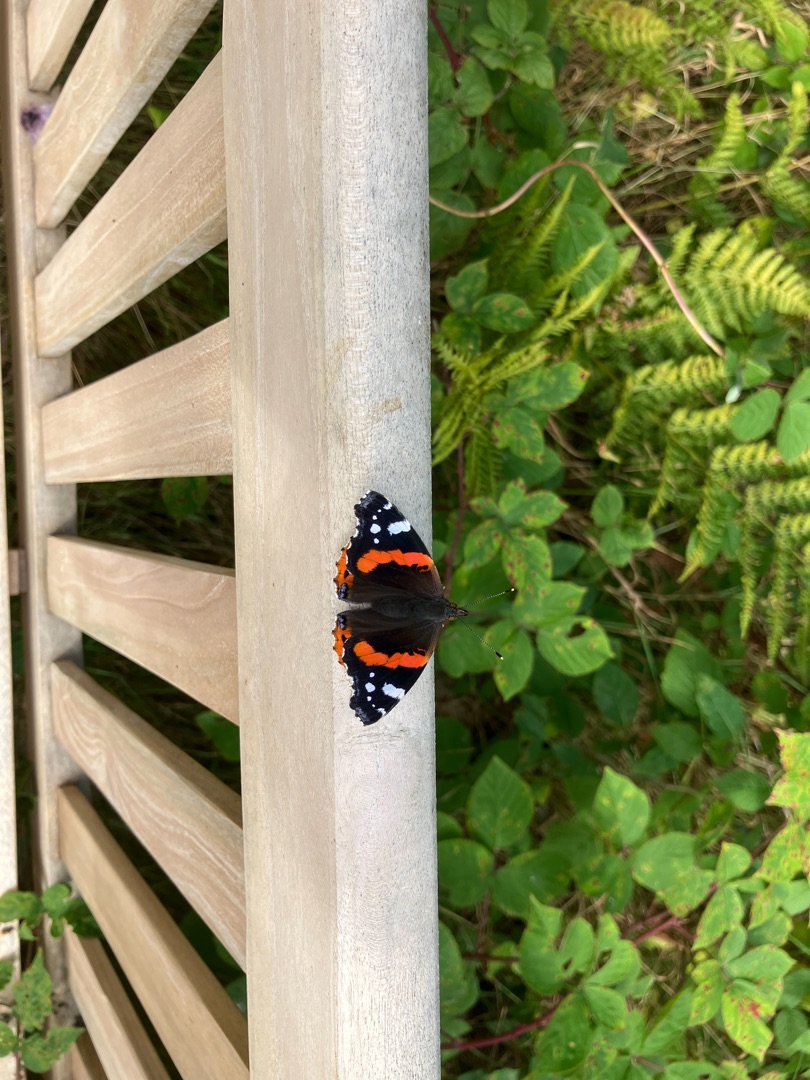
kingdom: Animalia
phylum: Arthropoda
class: Insecta
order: Lepidoptera
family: Nymphalidae
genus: Vanessa
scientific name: Vanessa atalanta
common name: Admiral
